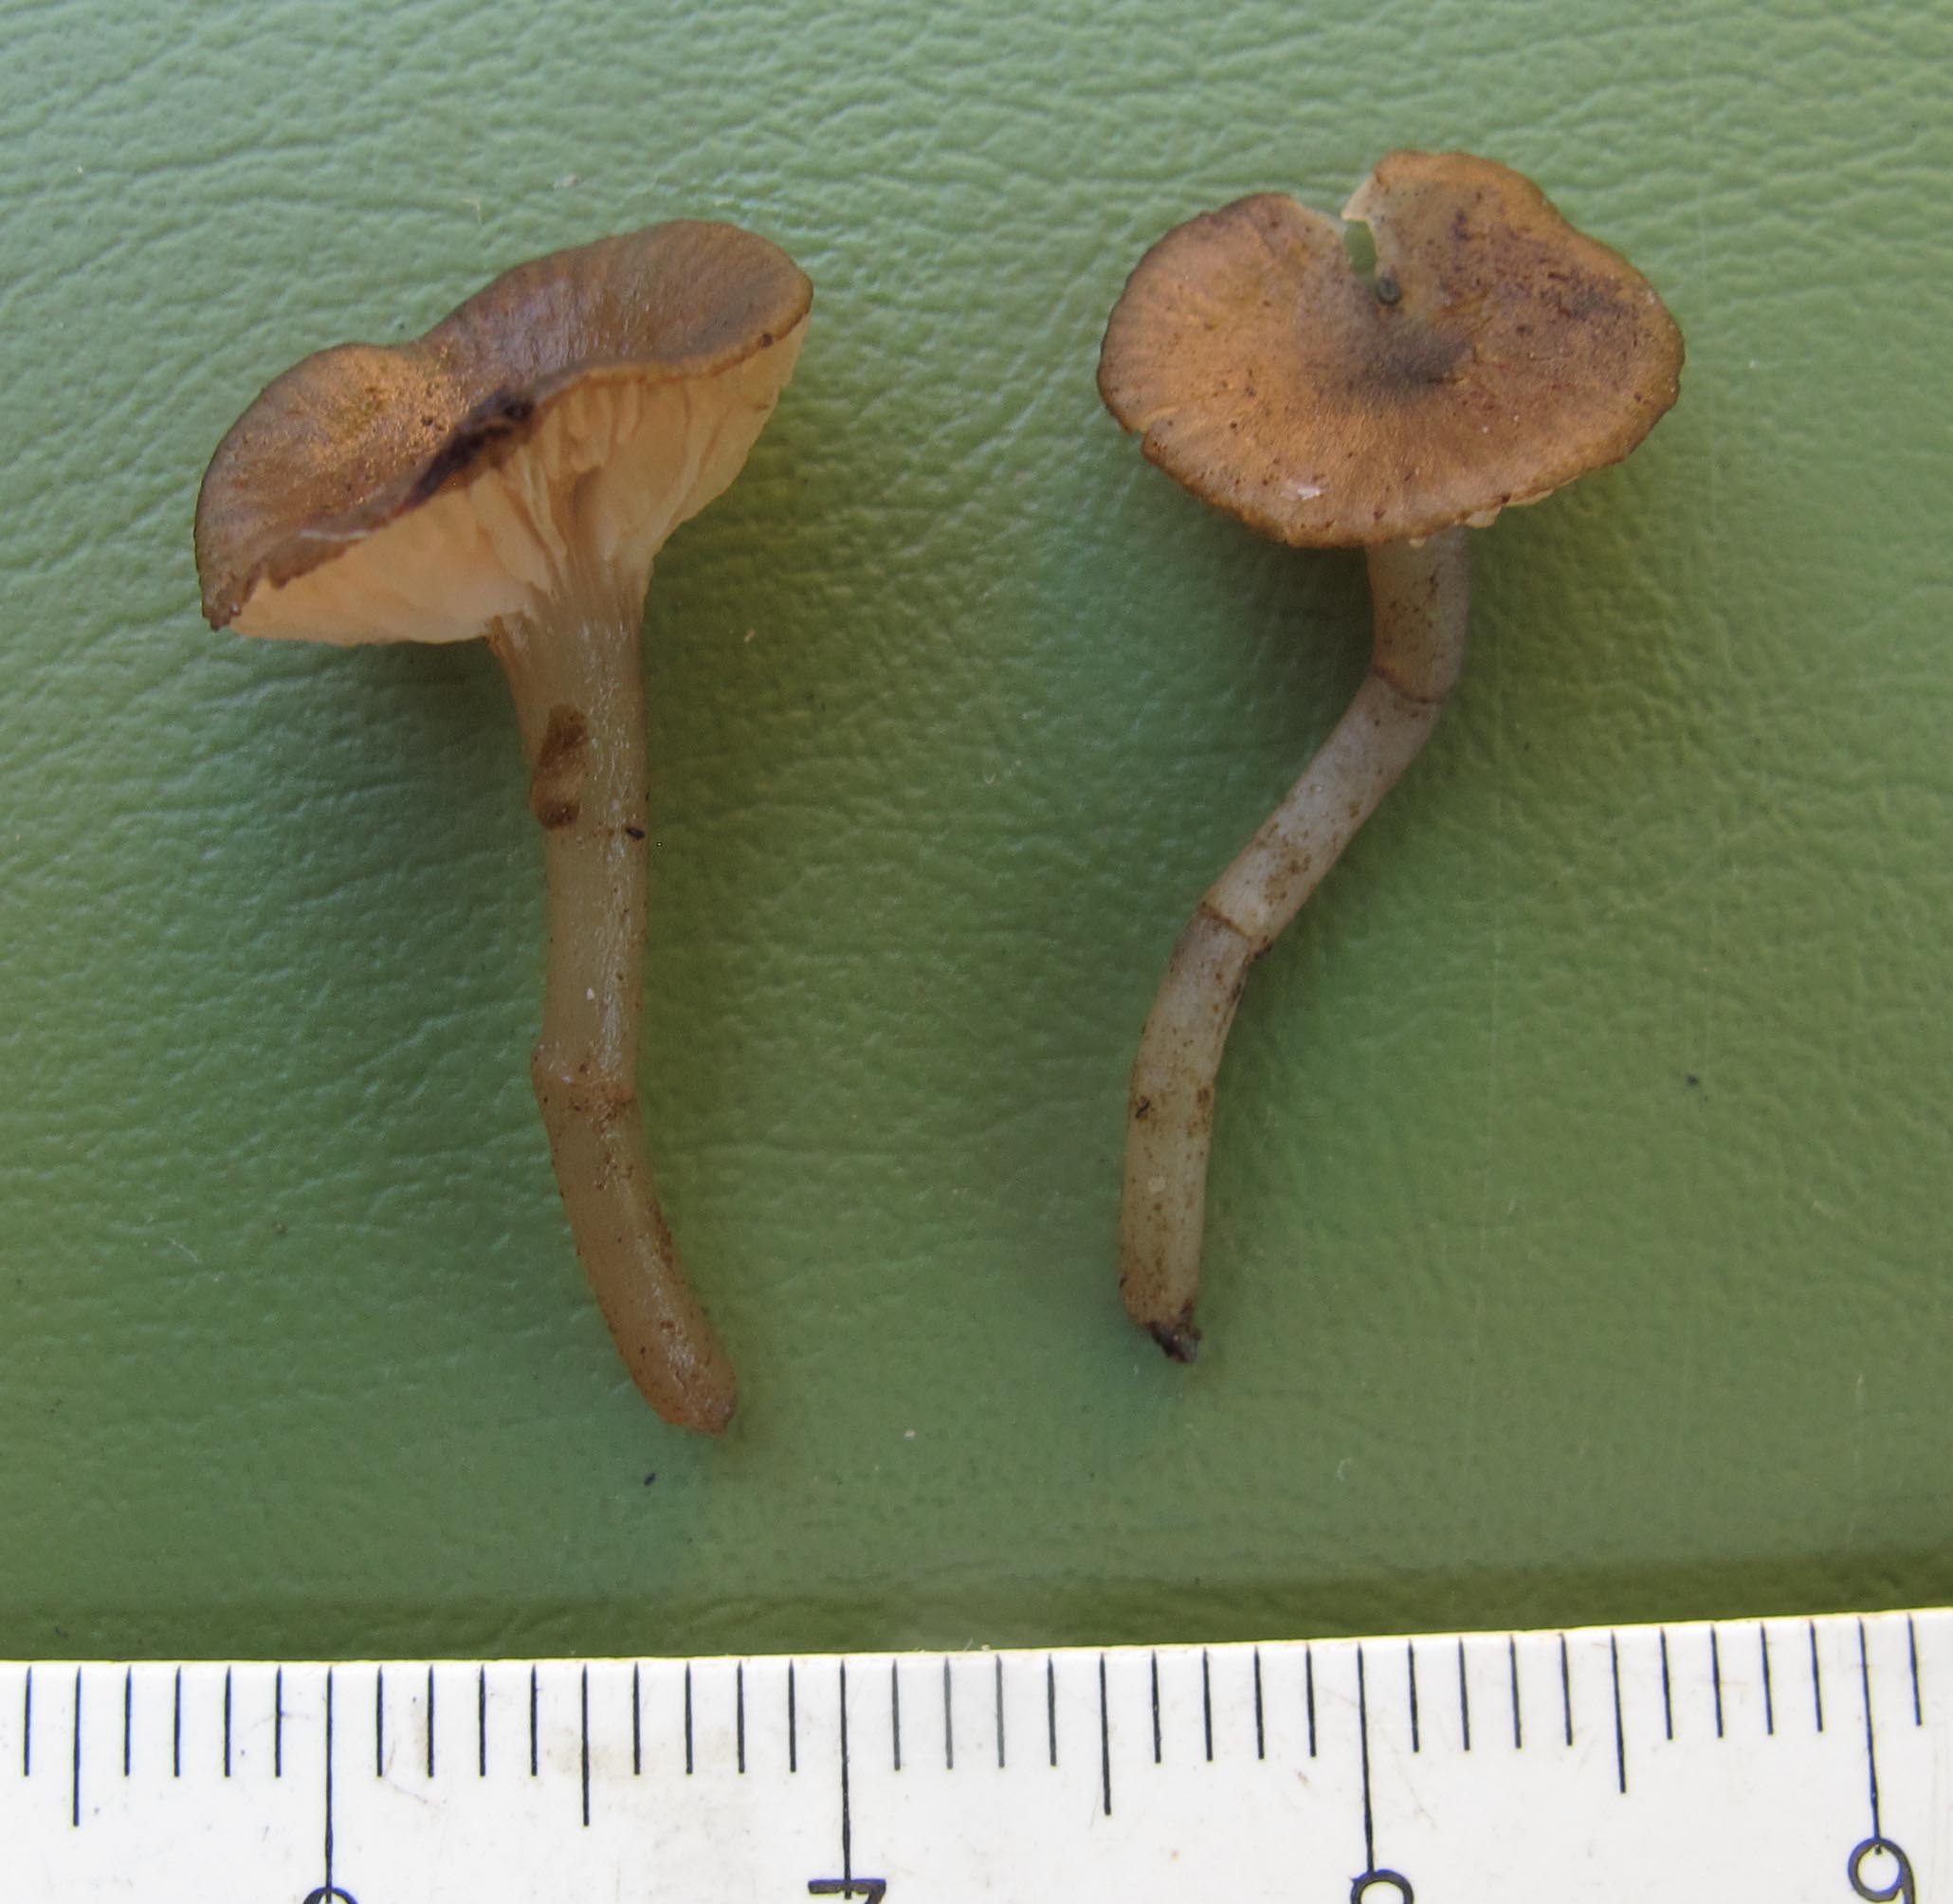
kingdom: Fungi
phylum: Basidiomycota
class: Agaricomycetes
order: Agaricales
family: Entolomataceae
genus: Entoloma
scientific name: Entoloma caccabus
